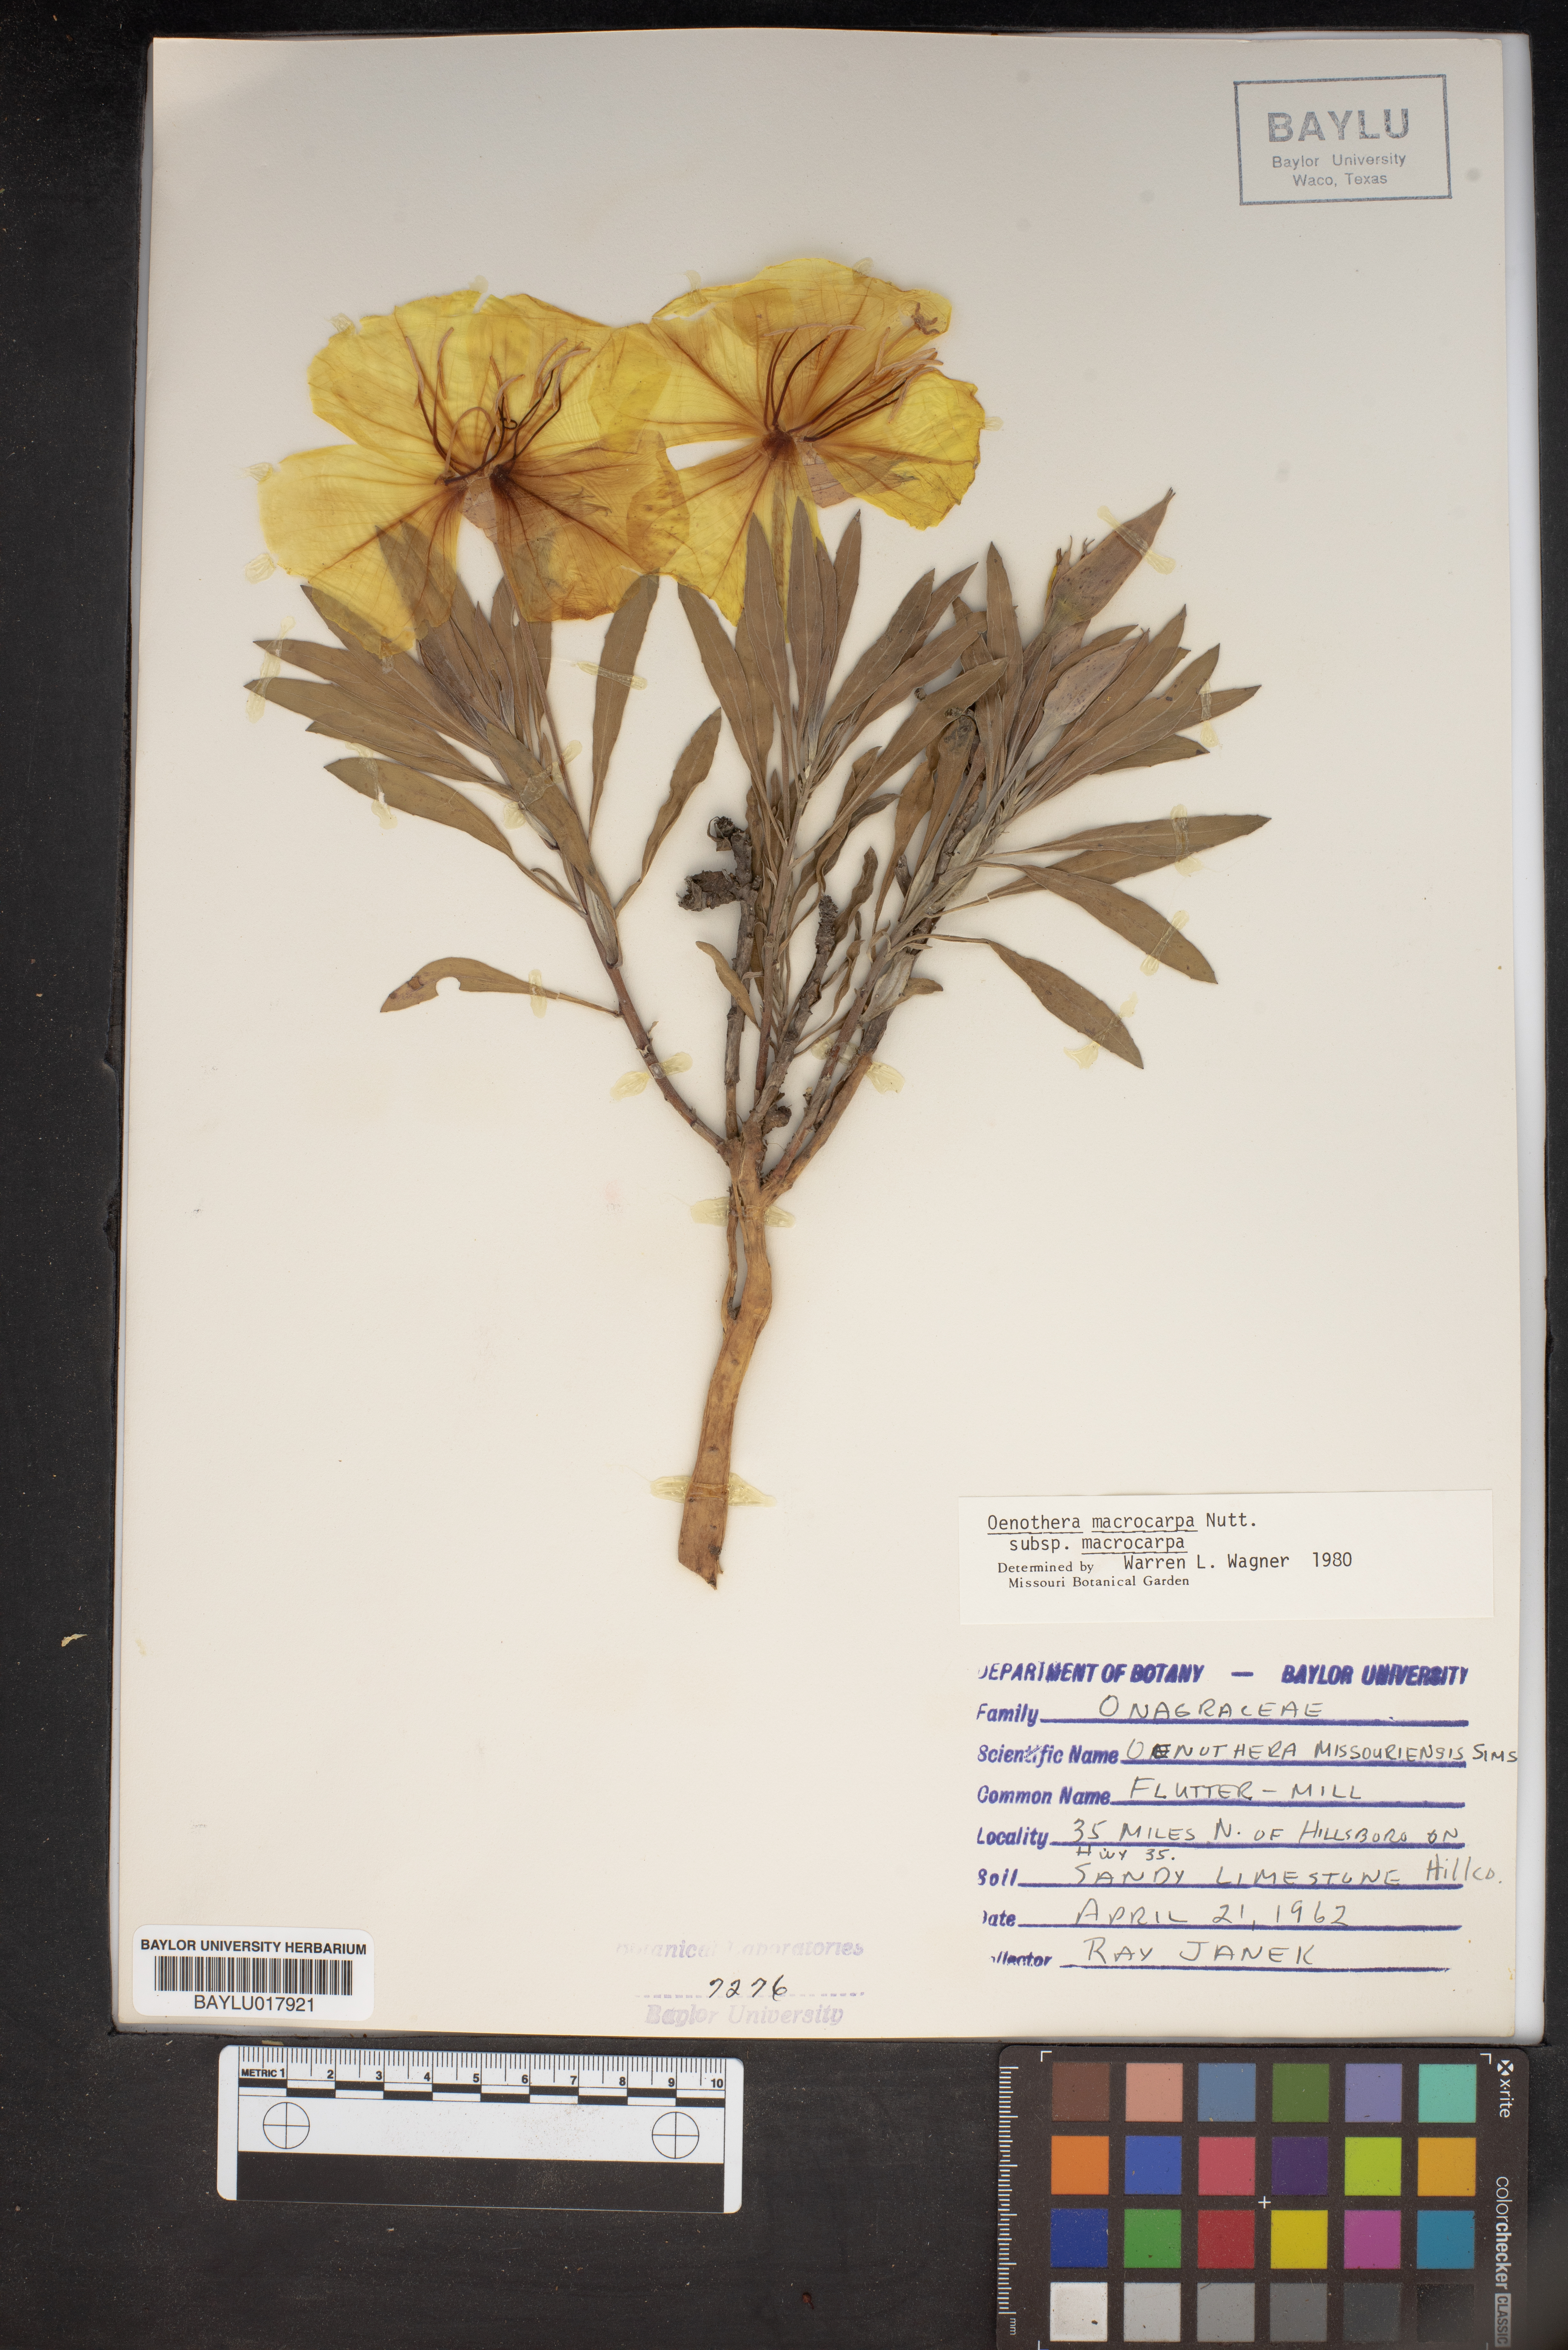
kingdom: Plantae
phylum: Tracheophyta
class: Magnoliopsida
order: Myrtales
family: Onagraceae
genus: Oenothera
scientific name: Oenothera macrocarpa
